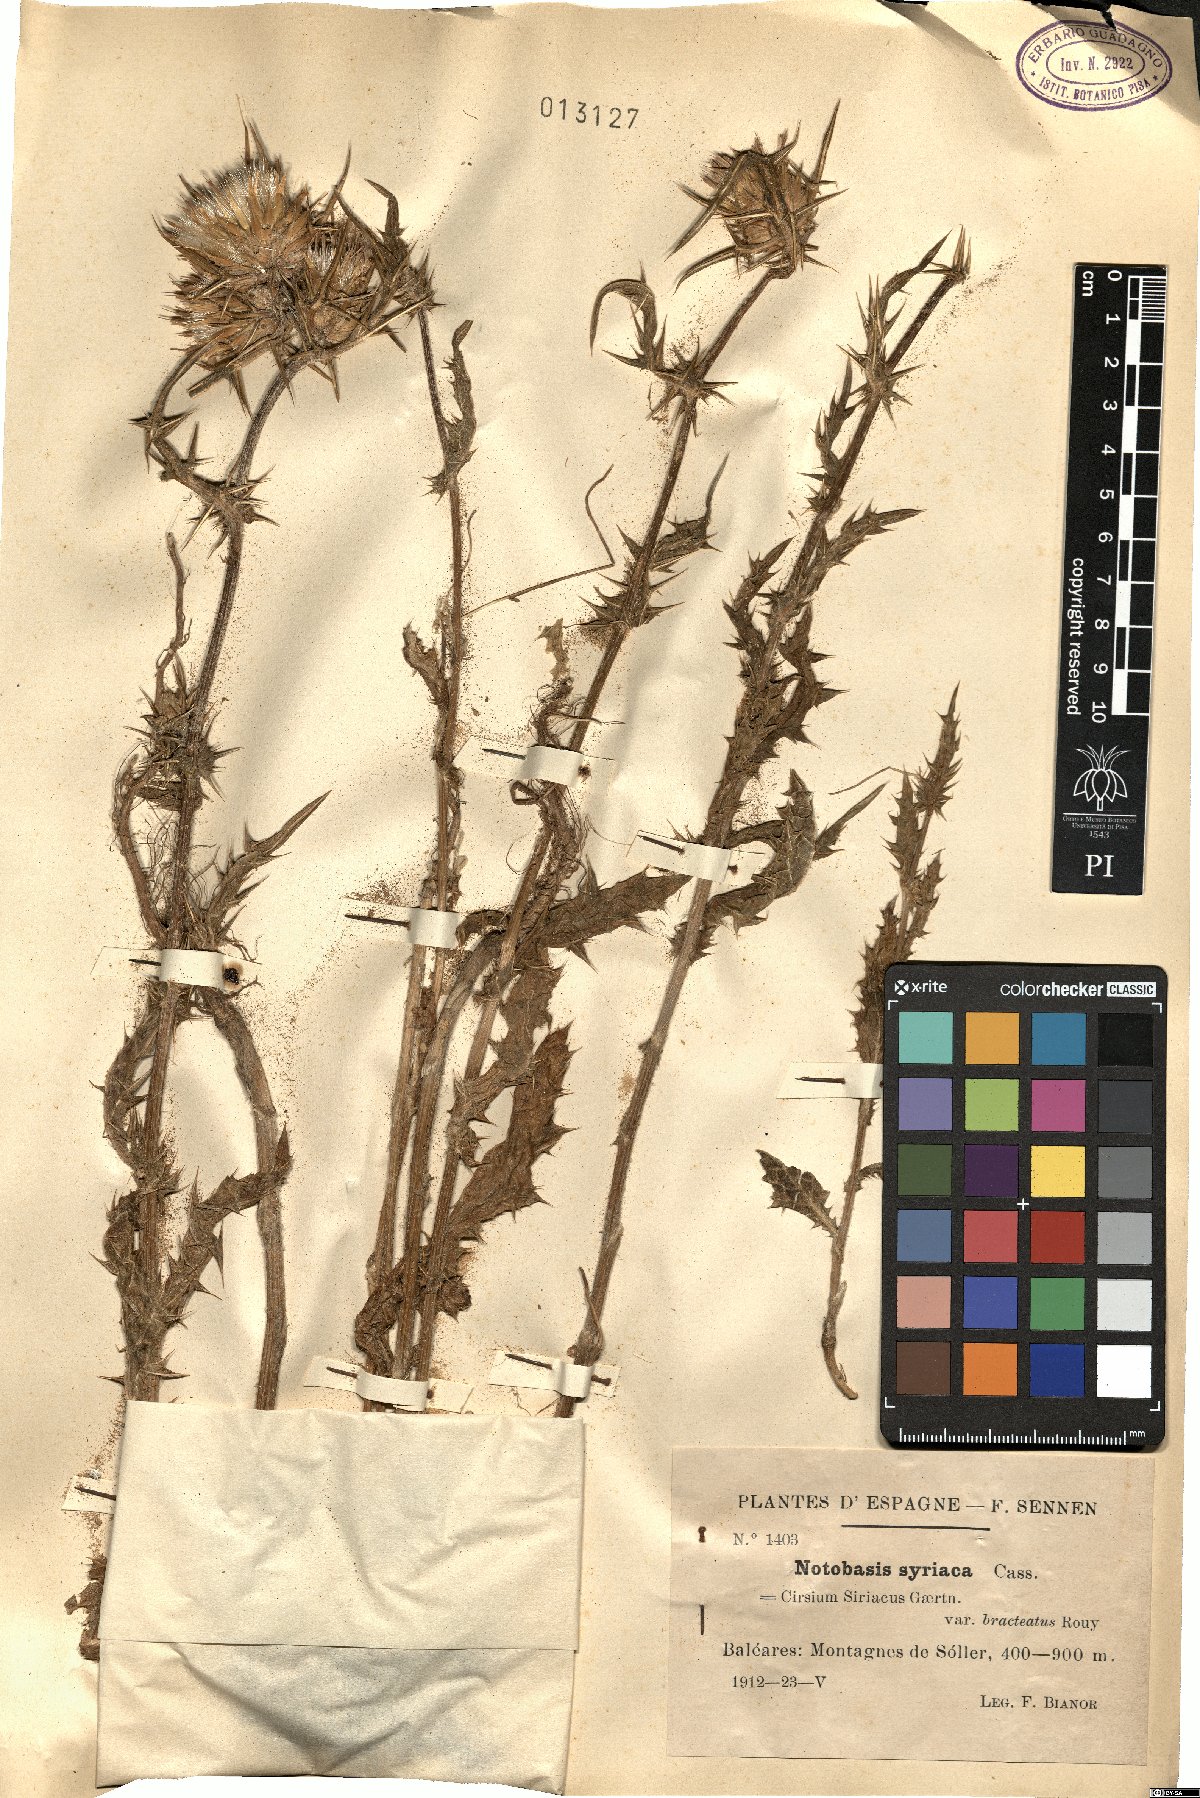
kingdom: Plantae
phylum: Tracheophyta
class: Magnoliopsida
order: Asterales
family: Asteraceae
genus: Notobasis
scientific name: Notobasis syriaca
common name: Syrian thistle
